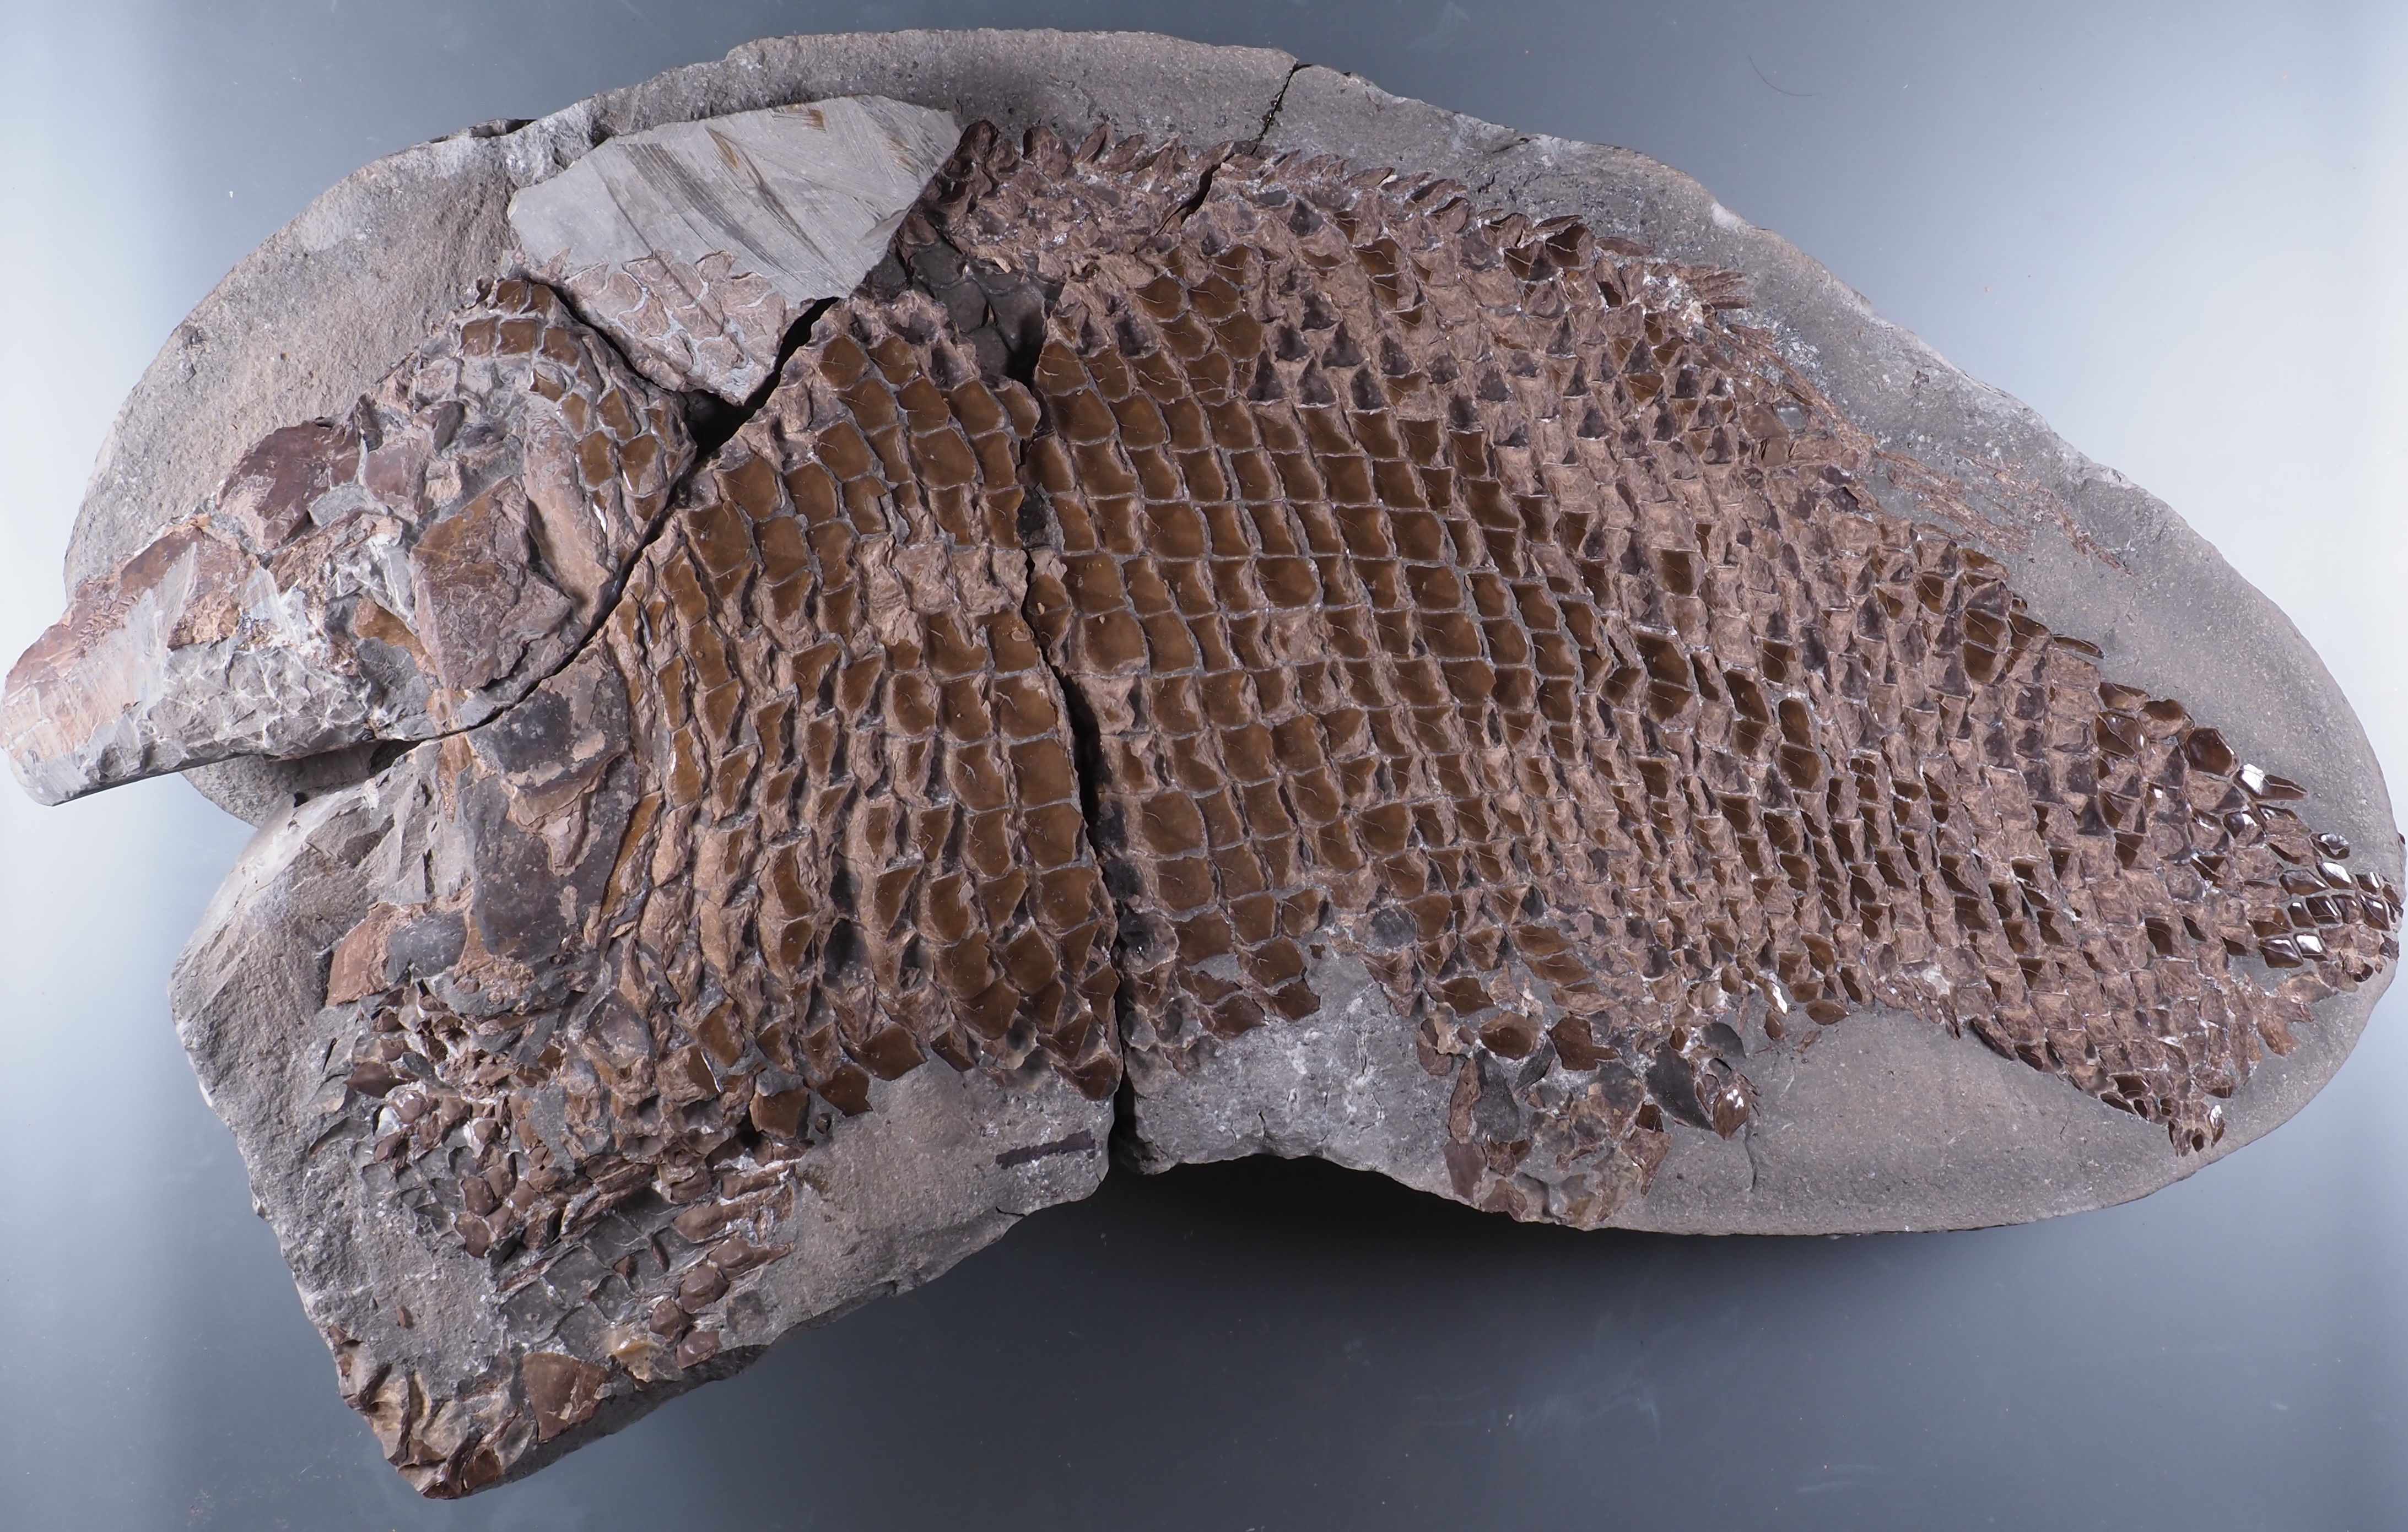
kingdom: Animalia
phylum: Chordata
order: Lepisosteiformes
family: Lepidotidae
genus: Lepidotes
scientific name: Lepidotes elvensis
